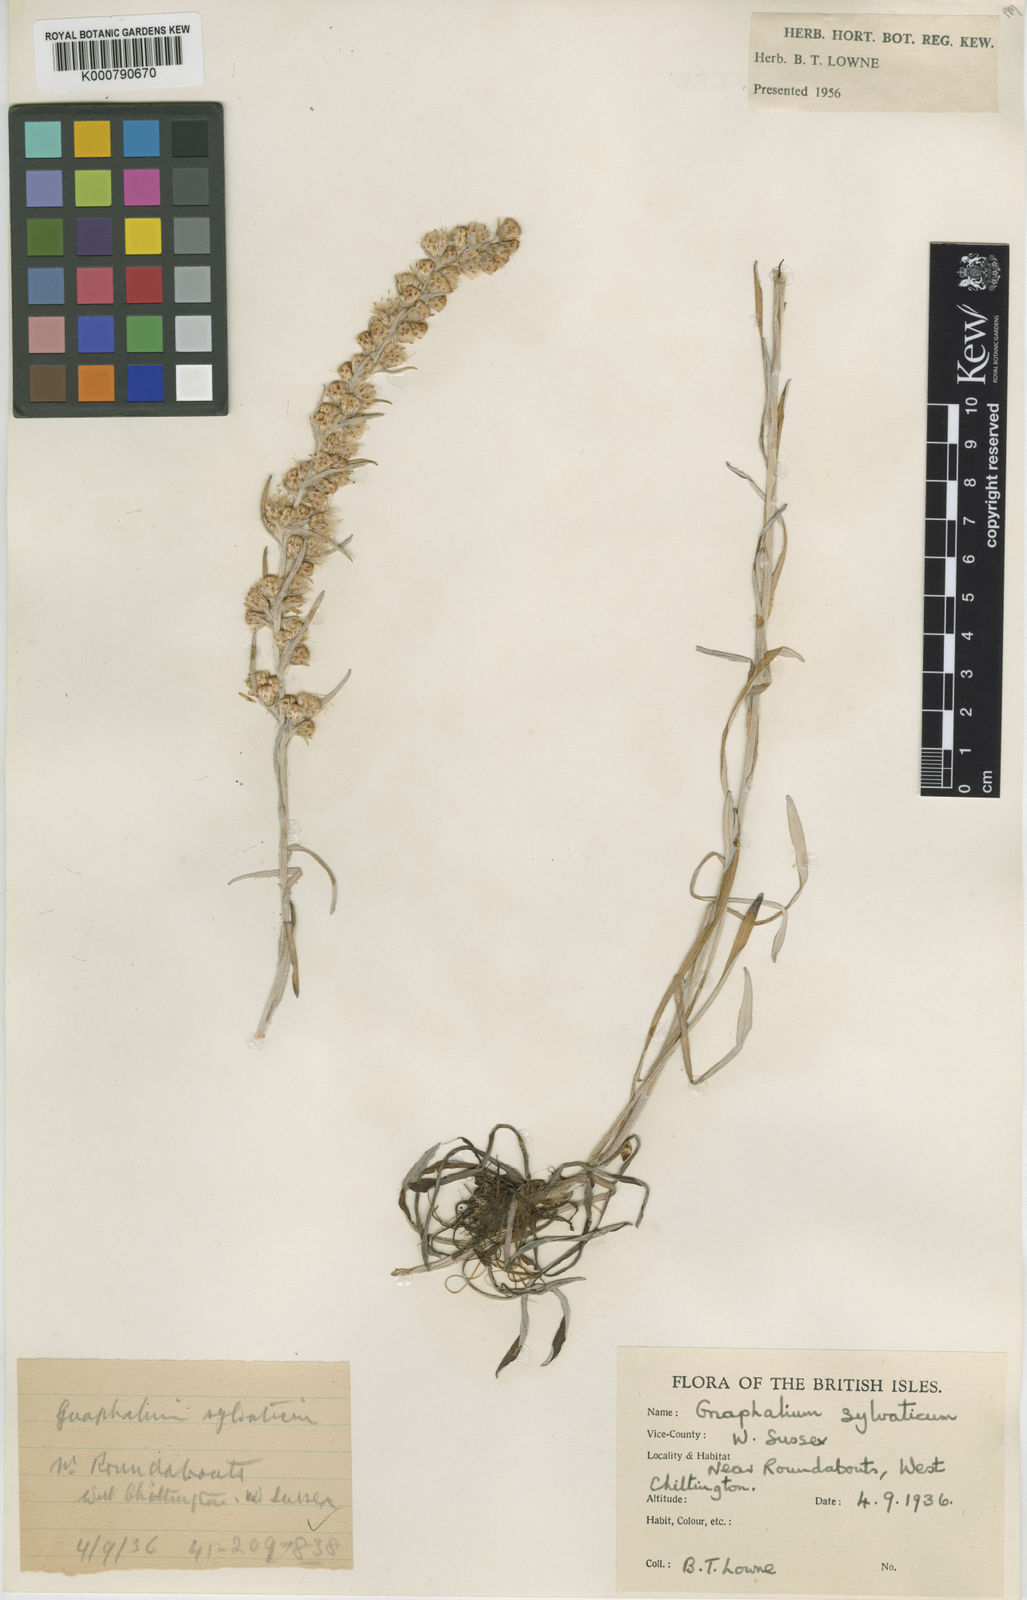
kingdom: Plantae
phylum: Tracheophyta
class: Magnoliopsida
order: Asterales
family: Asteraceae
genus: Omalotheca
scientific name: Omalotheca sylvatica
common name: Heath cudweed
